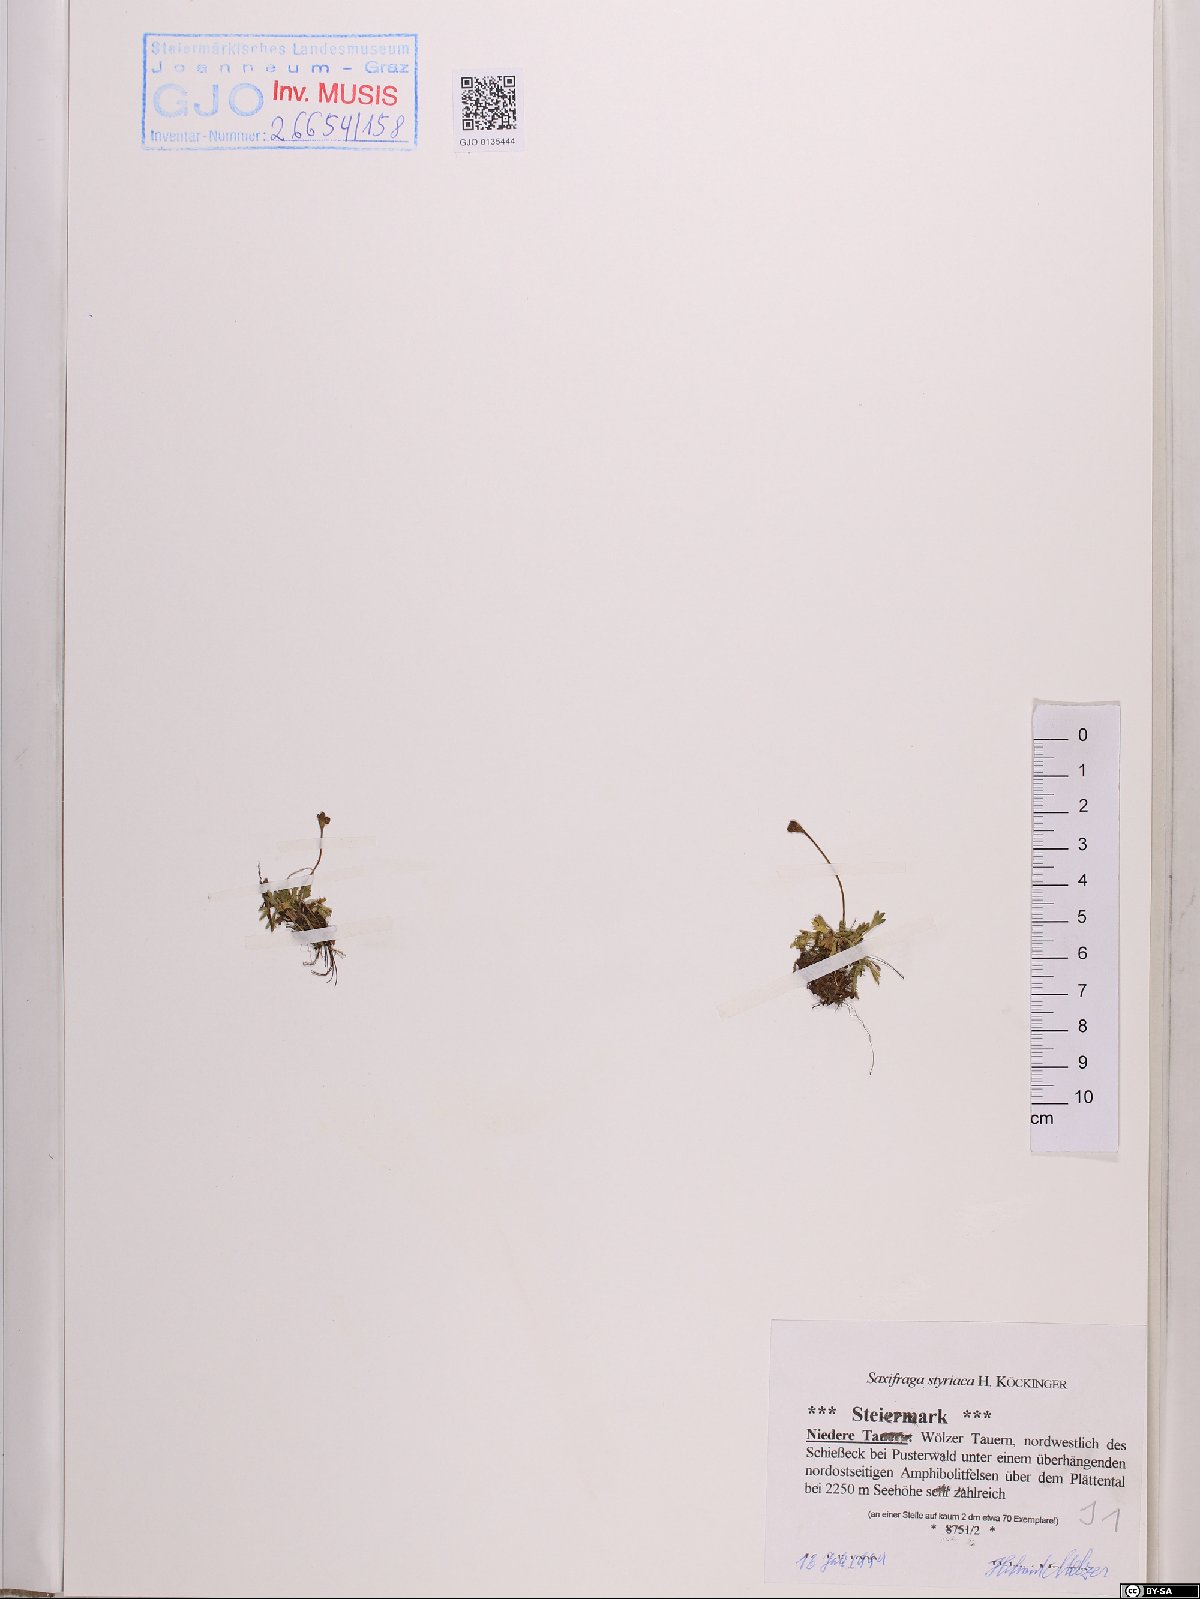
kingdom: Plantae
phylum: Tracheophyta
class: Magnoliopsida
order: Saxifragales
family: Saxifragaceae
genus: Saxifraga
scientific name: Saxifraga styriaca
